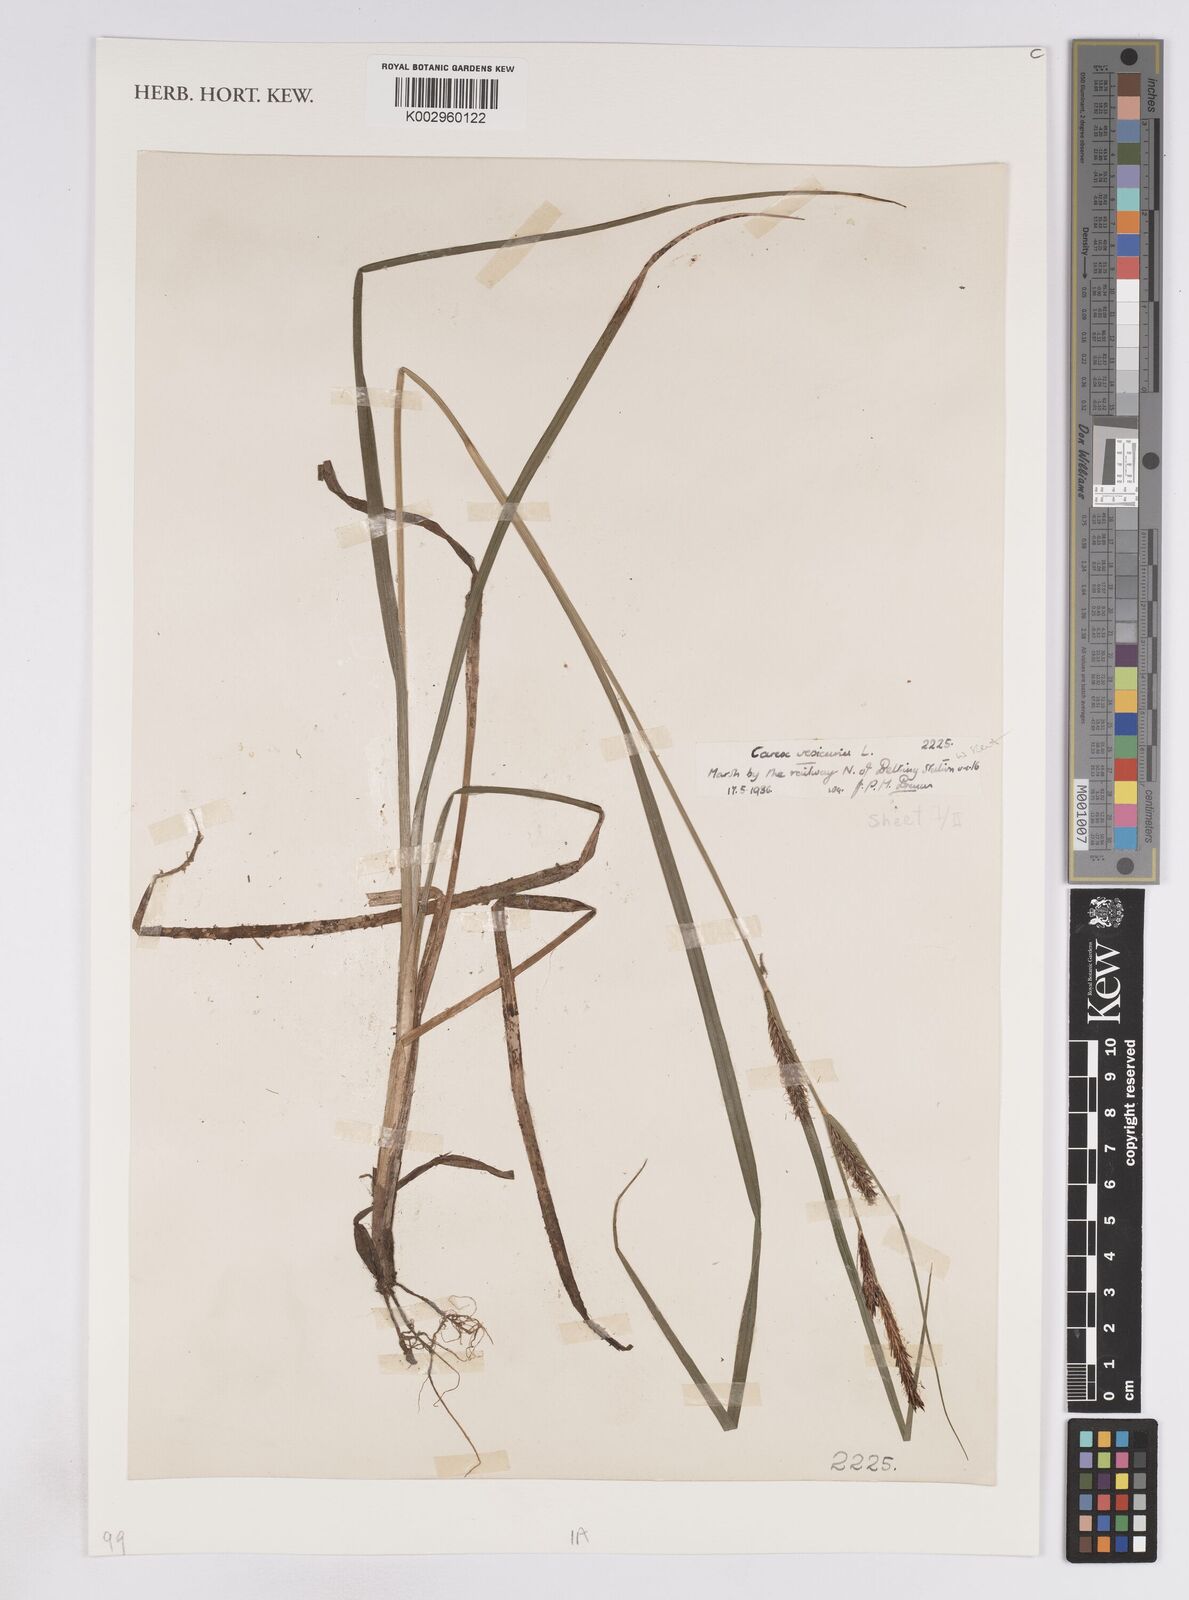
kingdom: Plantae
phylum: Tracheophyta
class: Liliopsida
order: Poales
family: Cyperaceae
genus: Carex
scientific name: Carex vesicaria
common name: Bladder-sedge
